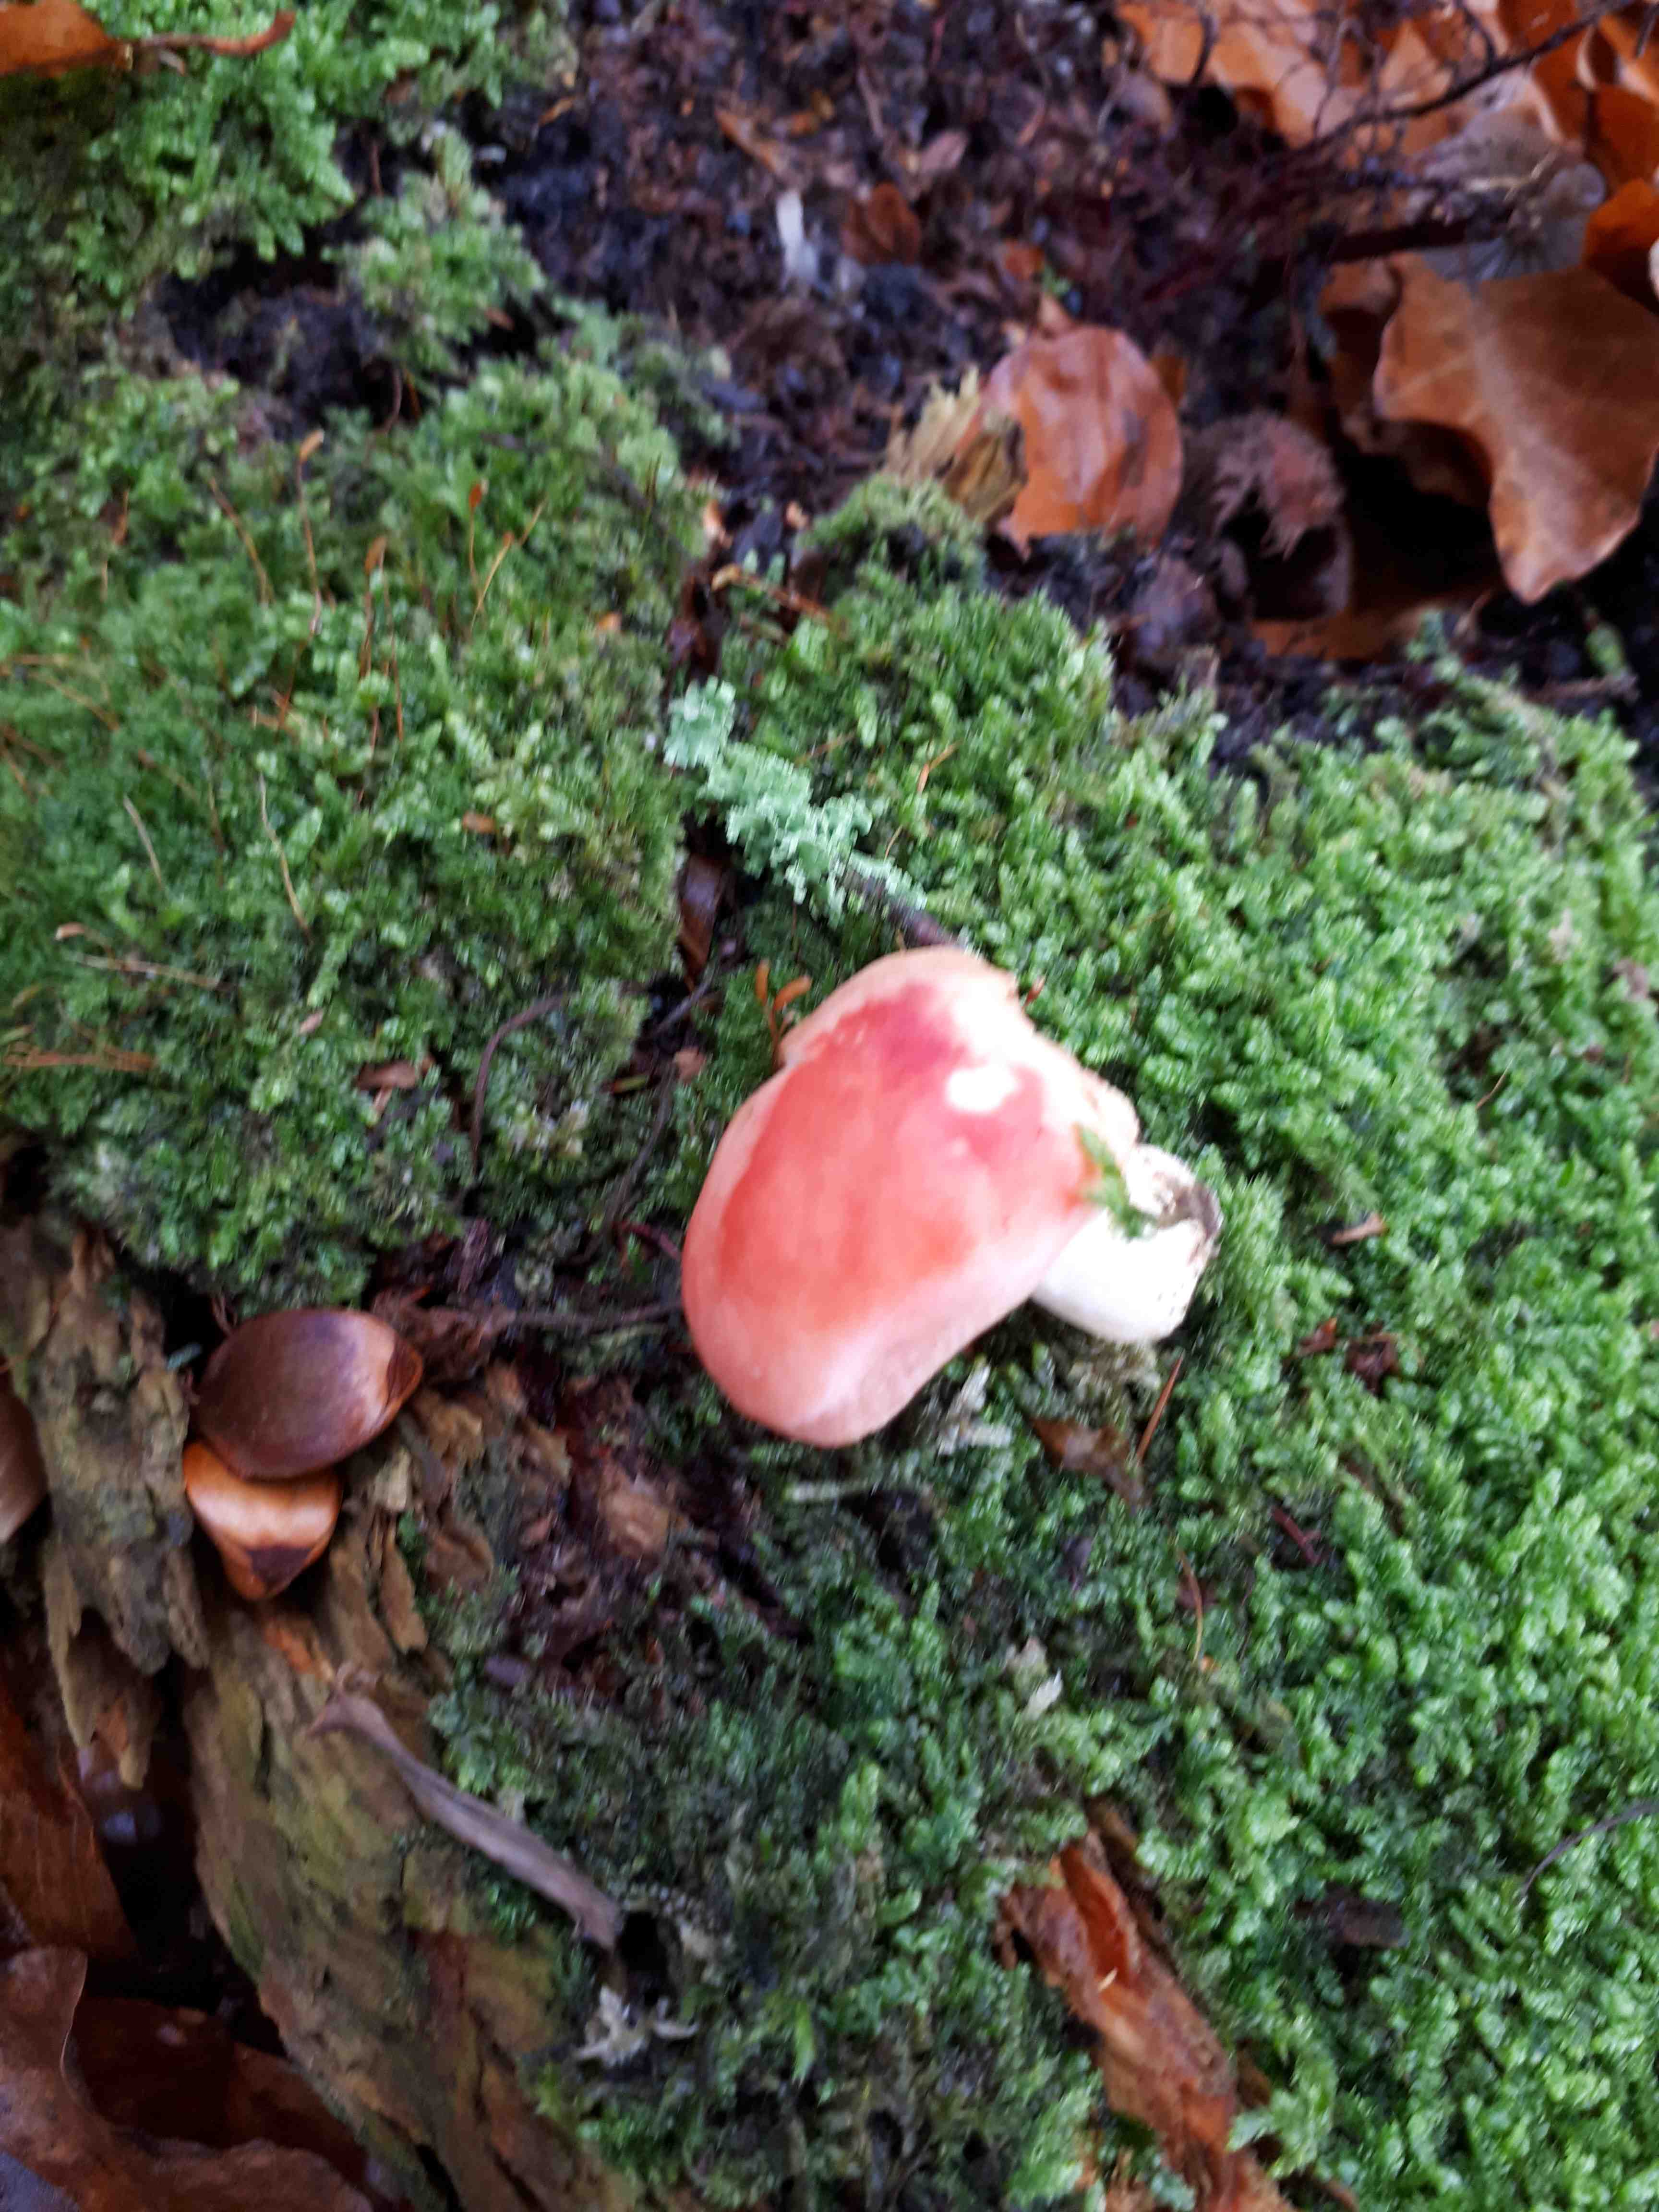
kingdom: Fungi
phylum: Basidiomycota
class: Agaricomycetes
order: Russulales
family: Russulaceae
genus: Russula
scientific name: Russula
